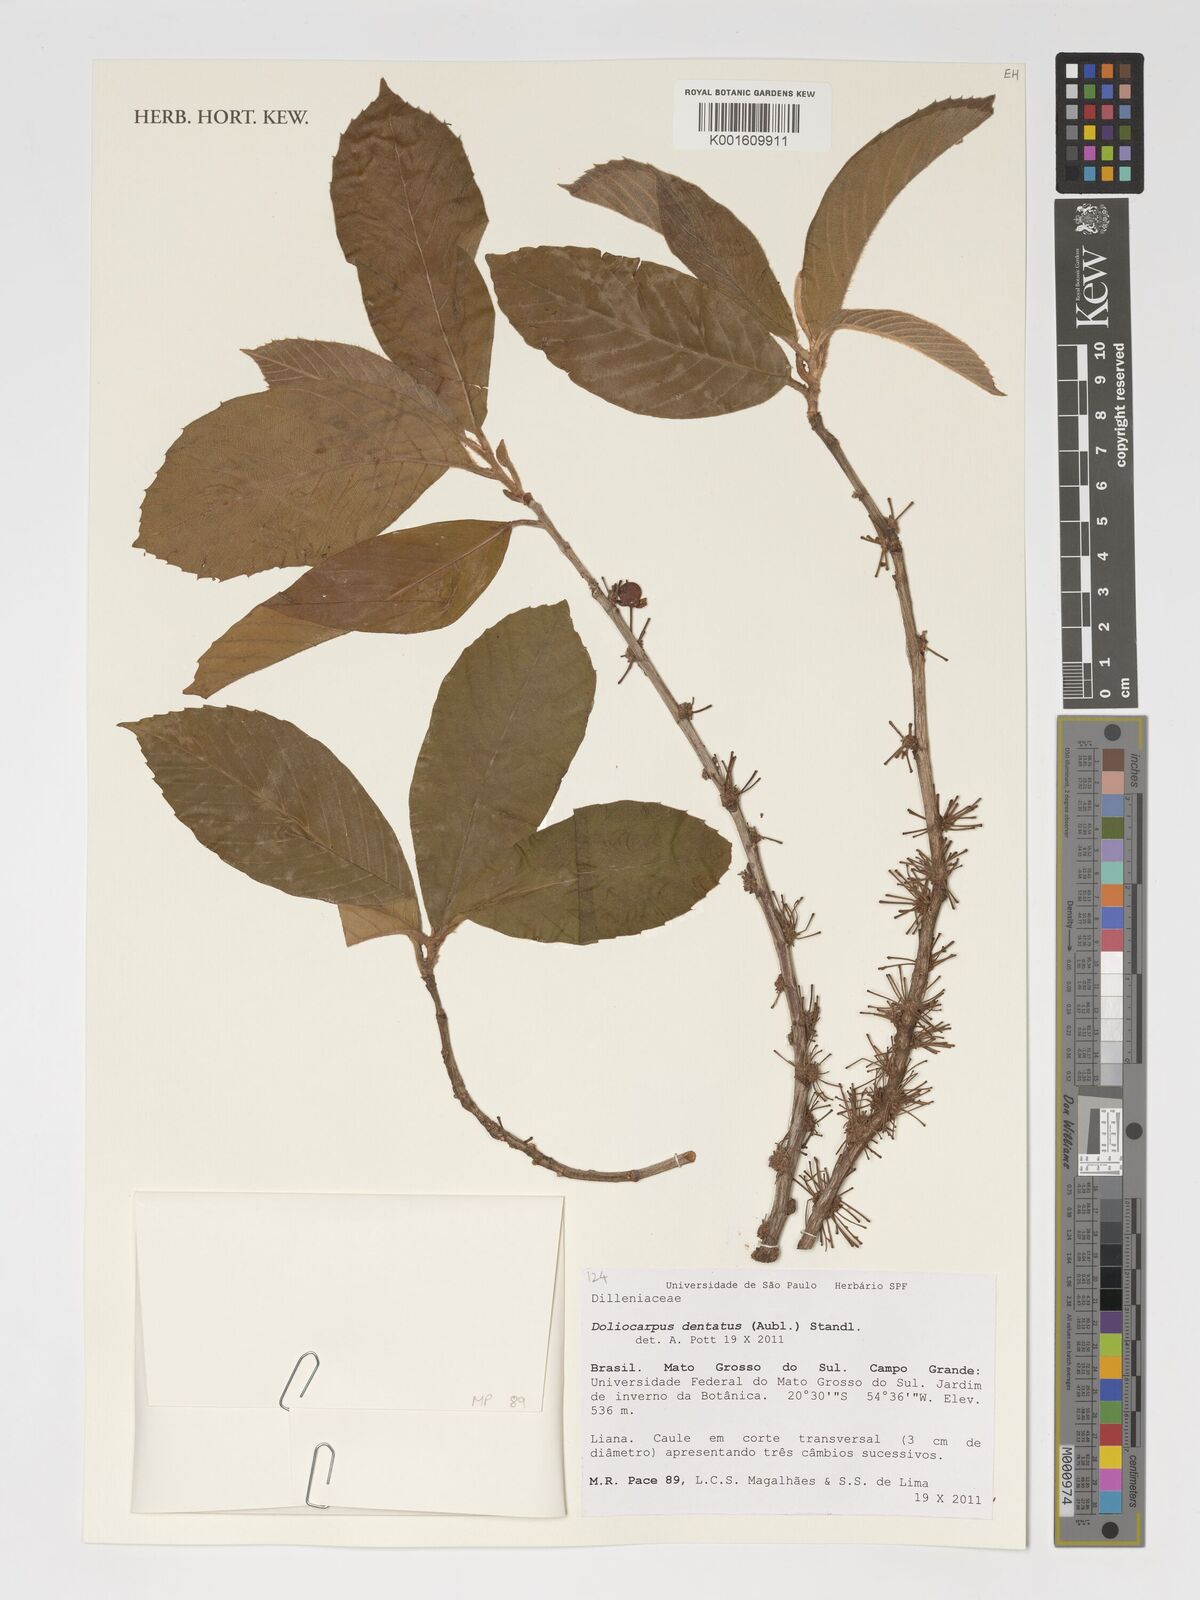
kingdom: Plantae
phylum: Tracheophyta
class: Magnoliopsida
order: Dilleniales
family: Dilleniaceae
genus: Doliocarpus
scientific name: Doliocarpus dentatus
